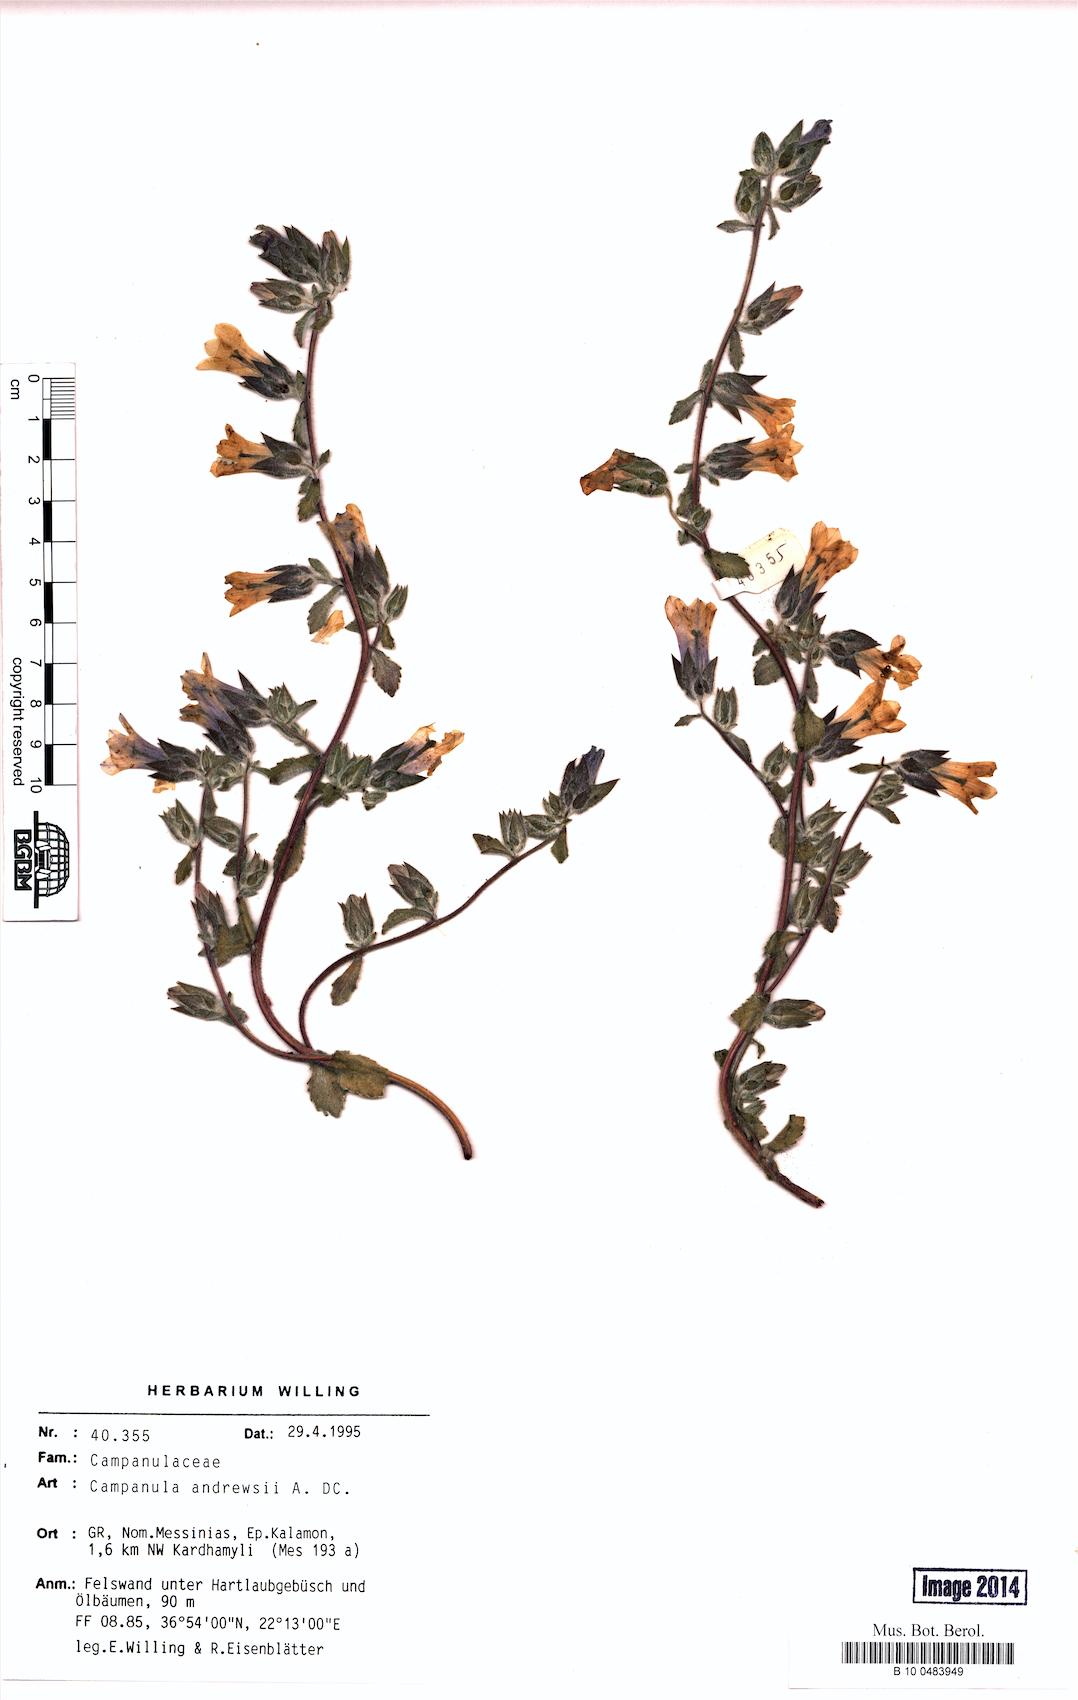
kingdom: Plantae
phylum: Tracheophyta
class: Magnoliopsida
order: Asterales
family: Campanulaceae
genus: Campanula
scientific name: Campanula andrewsii
